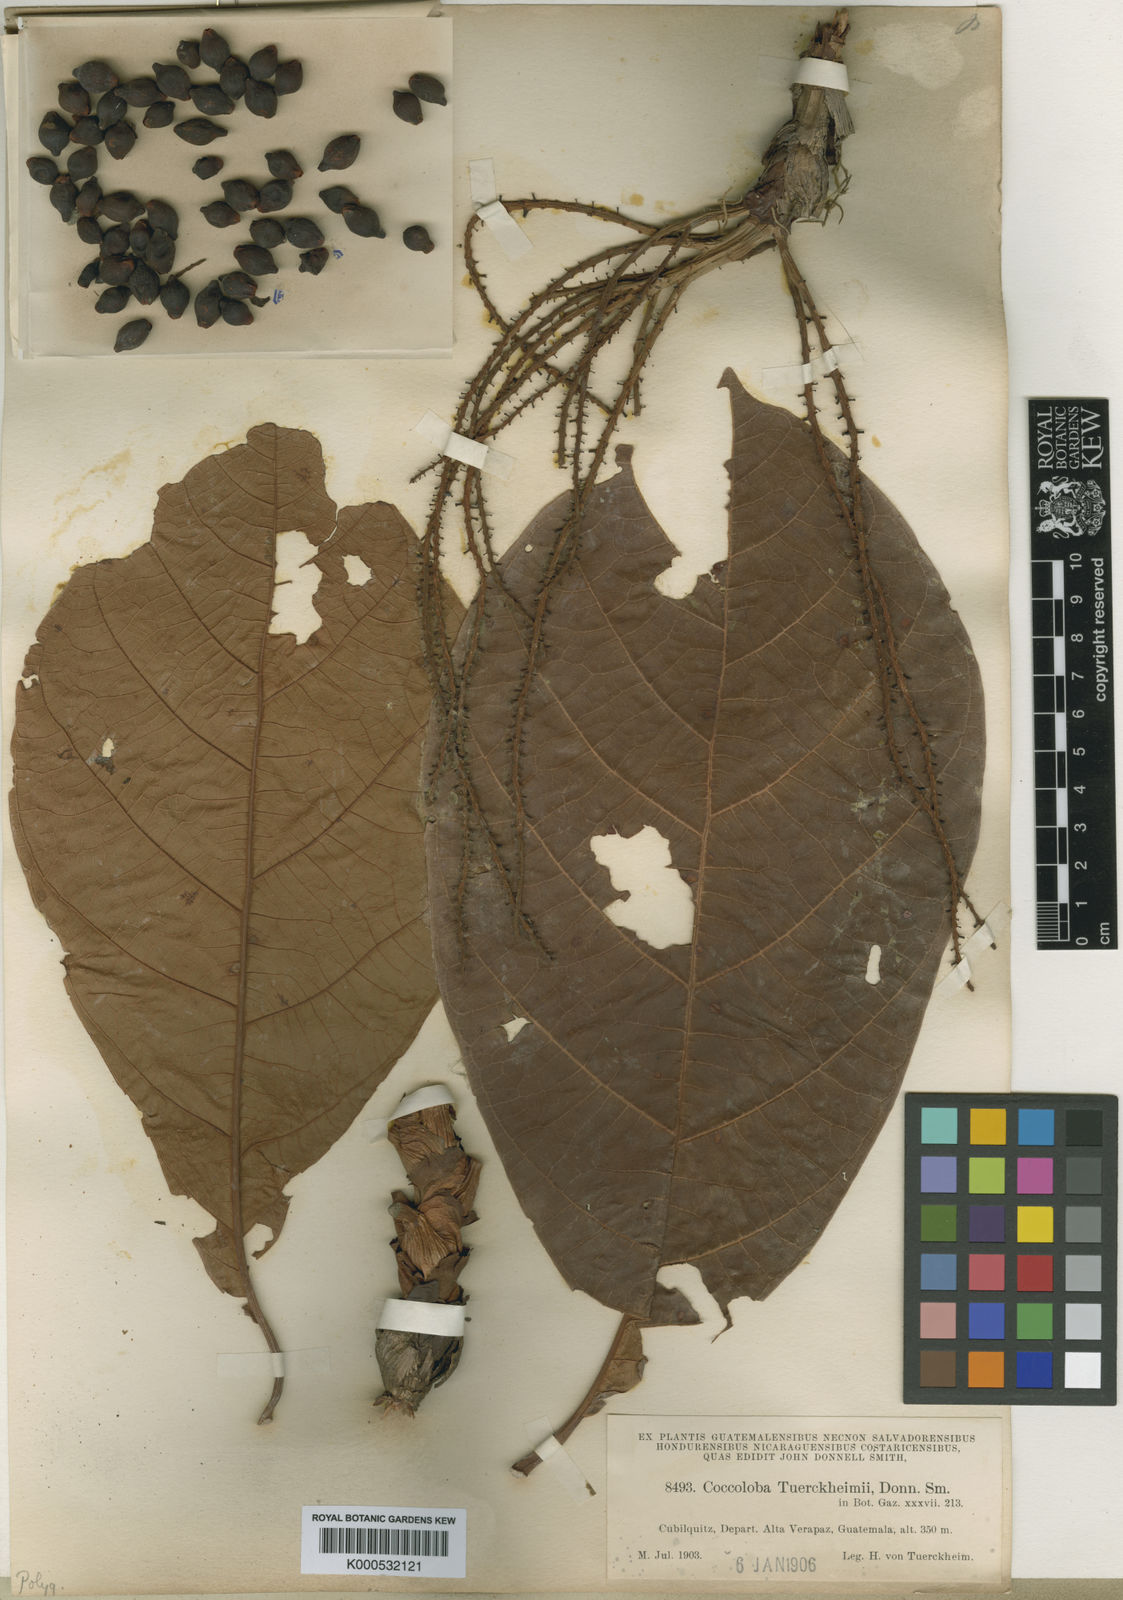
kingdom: Plantae
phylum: Tracheophyta
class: Magnoliopsida
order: Caryophyllales
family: Polygonaceae
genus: Coccoloba
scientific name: Coccoloba tuerckheimii
